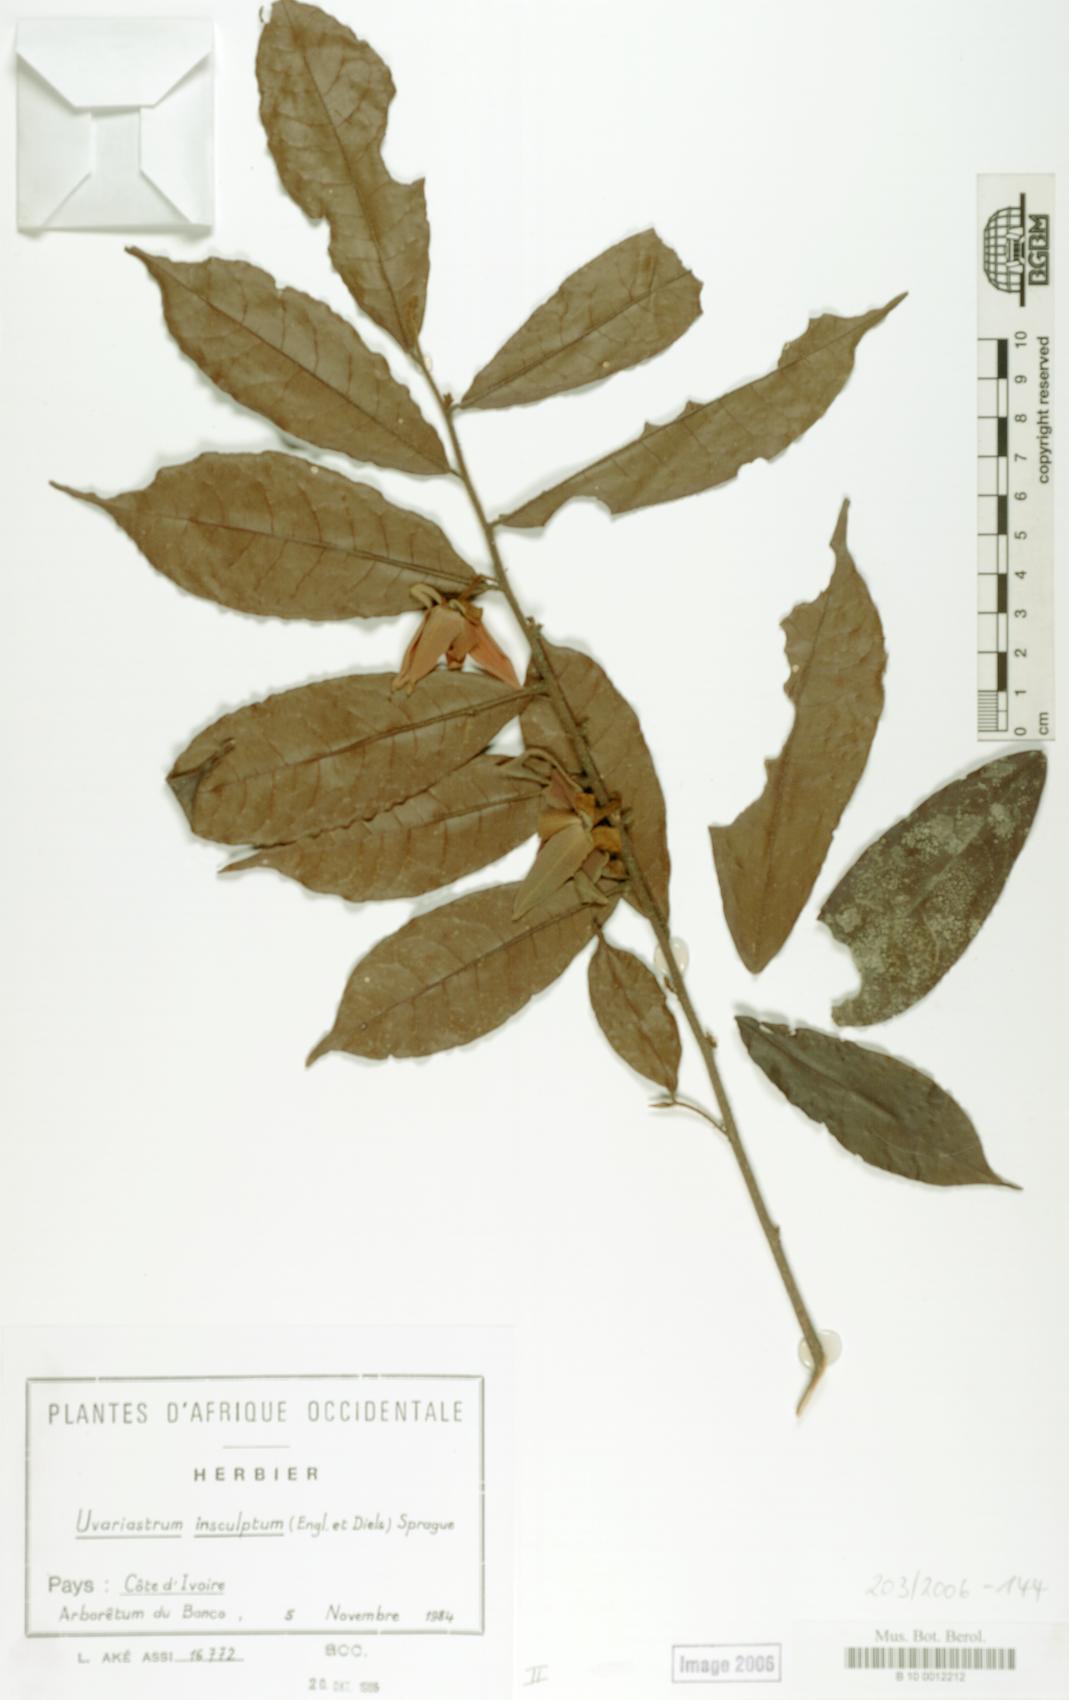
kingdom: Plantae
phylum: Tracheophyta
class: Magnoliopsida
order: Magnoliales
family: Annonaceae
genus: Uvariastrum
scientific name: Uvariastrum pierreanum
